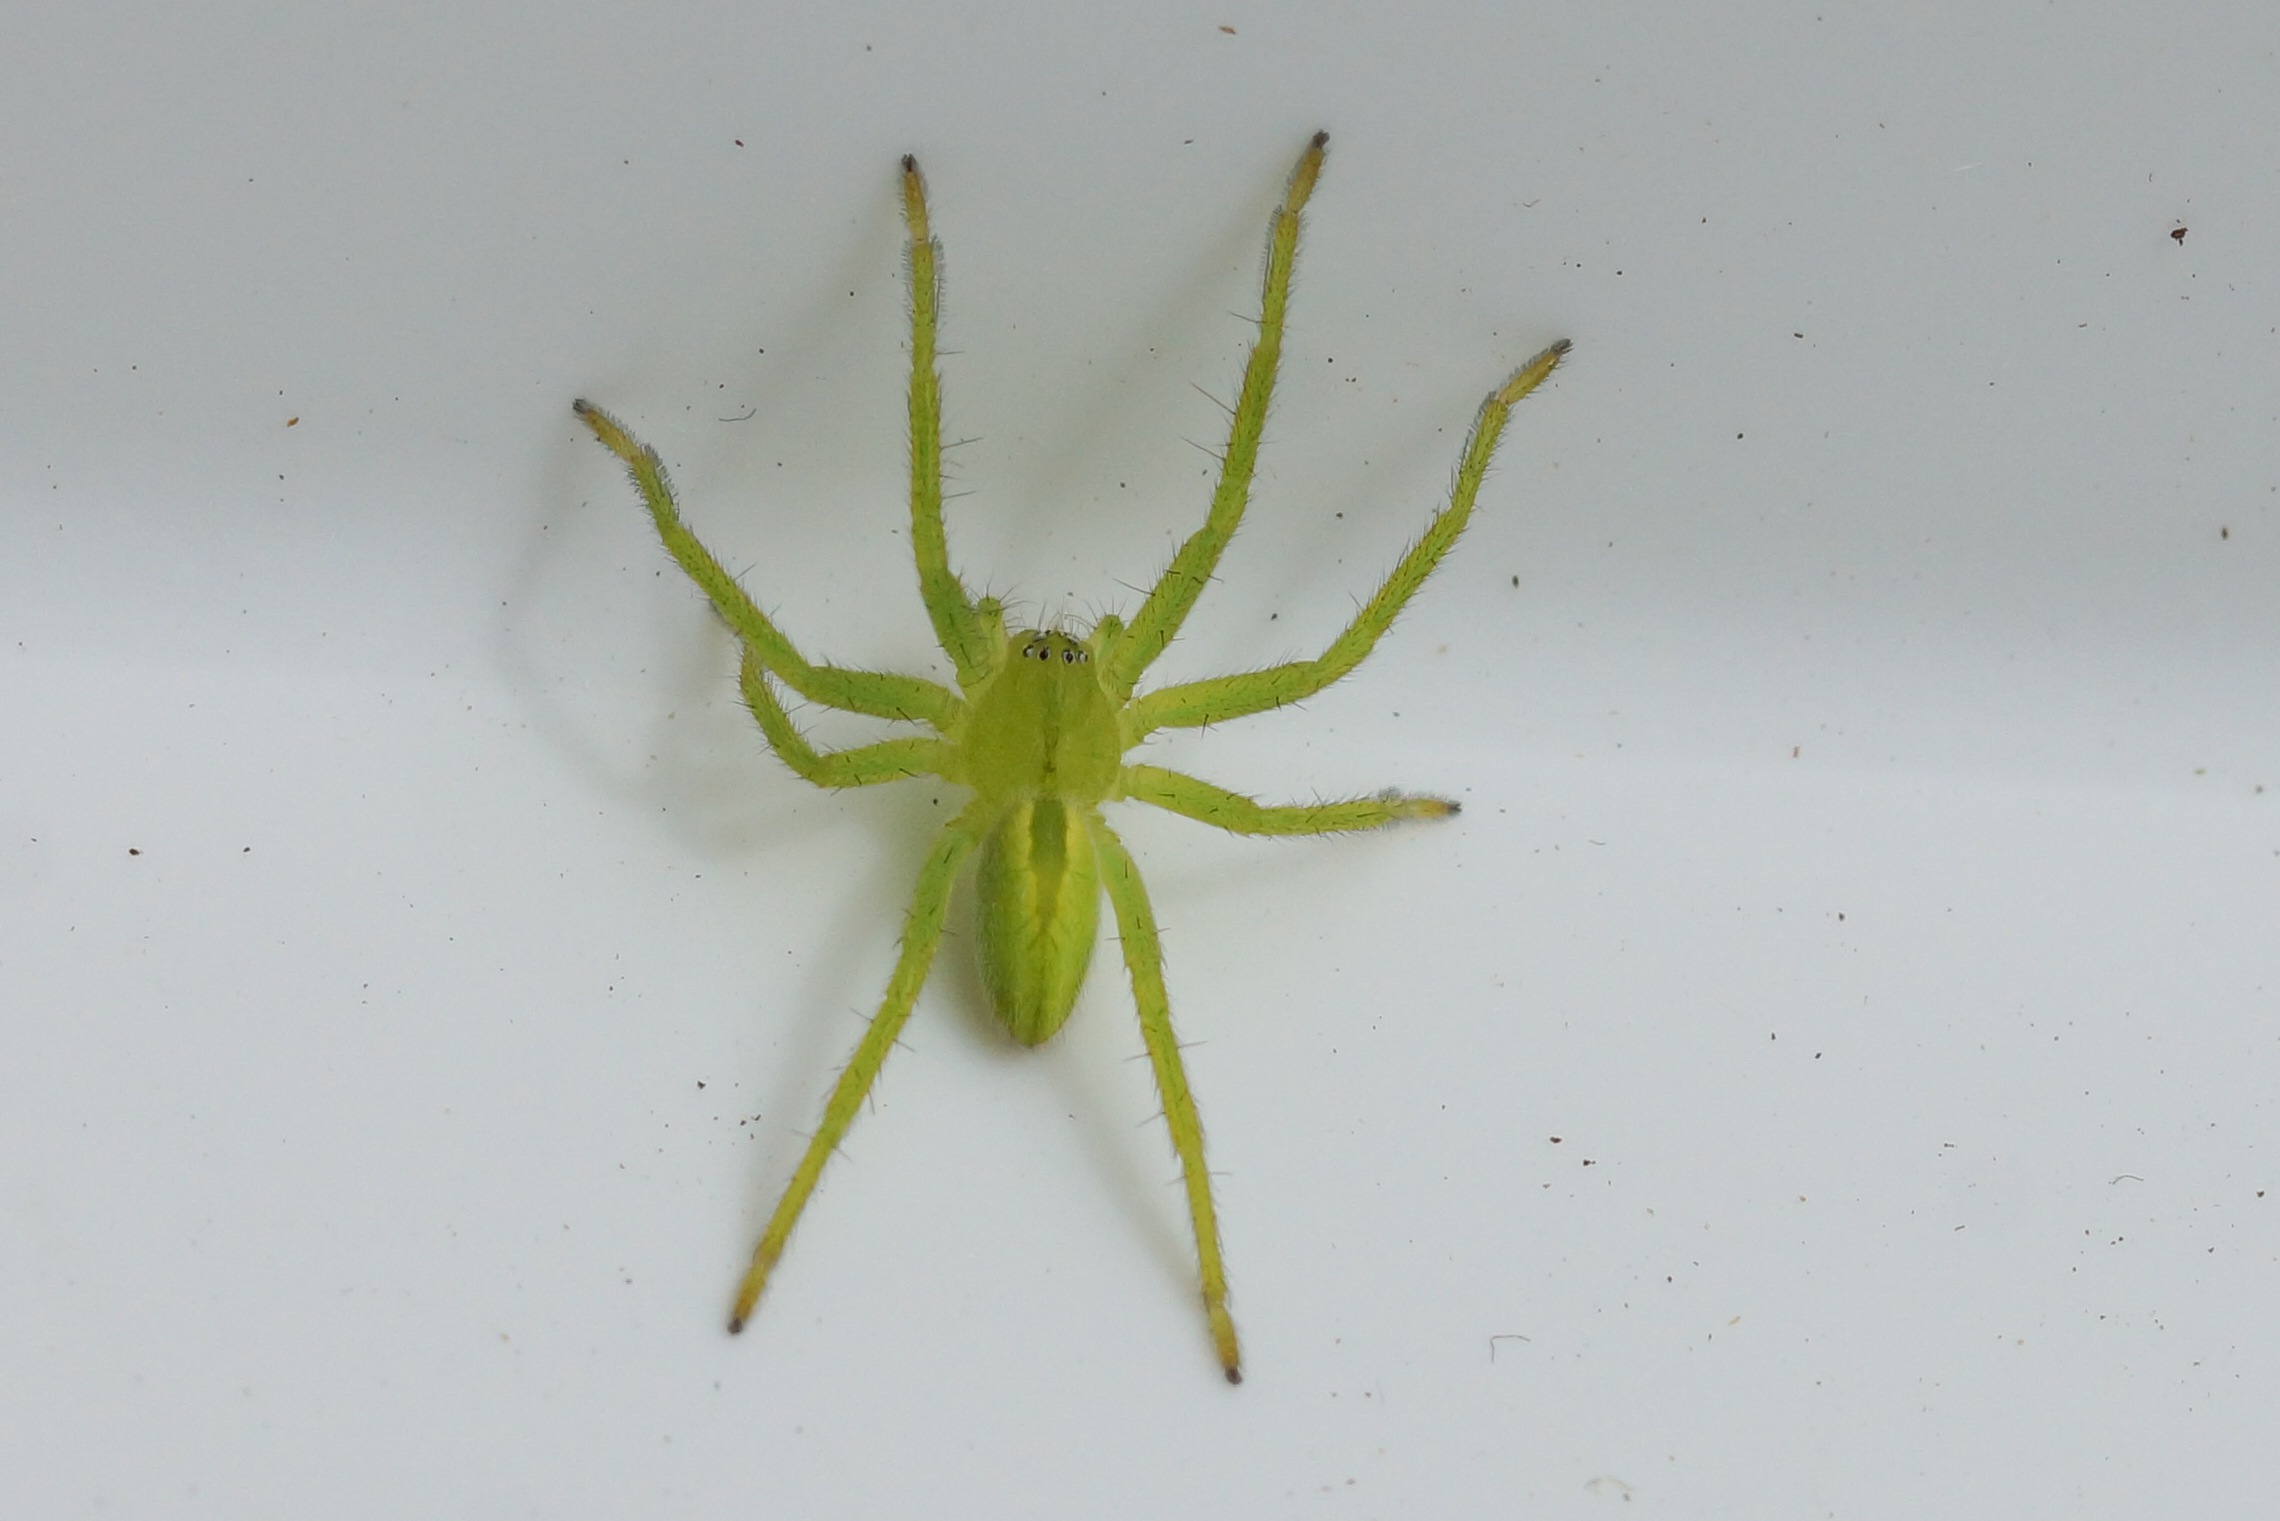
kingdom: Animalia
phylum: Arthropoda
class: Arachnida
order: Araneae
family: Sparassidae
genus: Micrommata
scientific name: Micrommata virescens
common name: Smaragdedderkop
